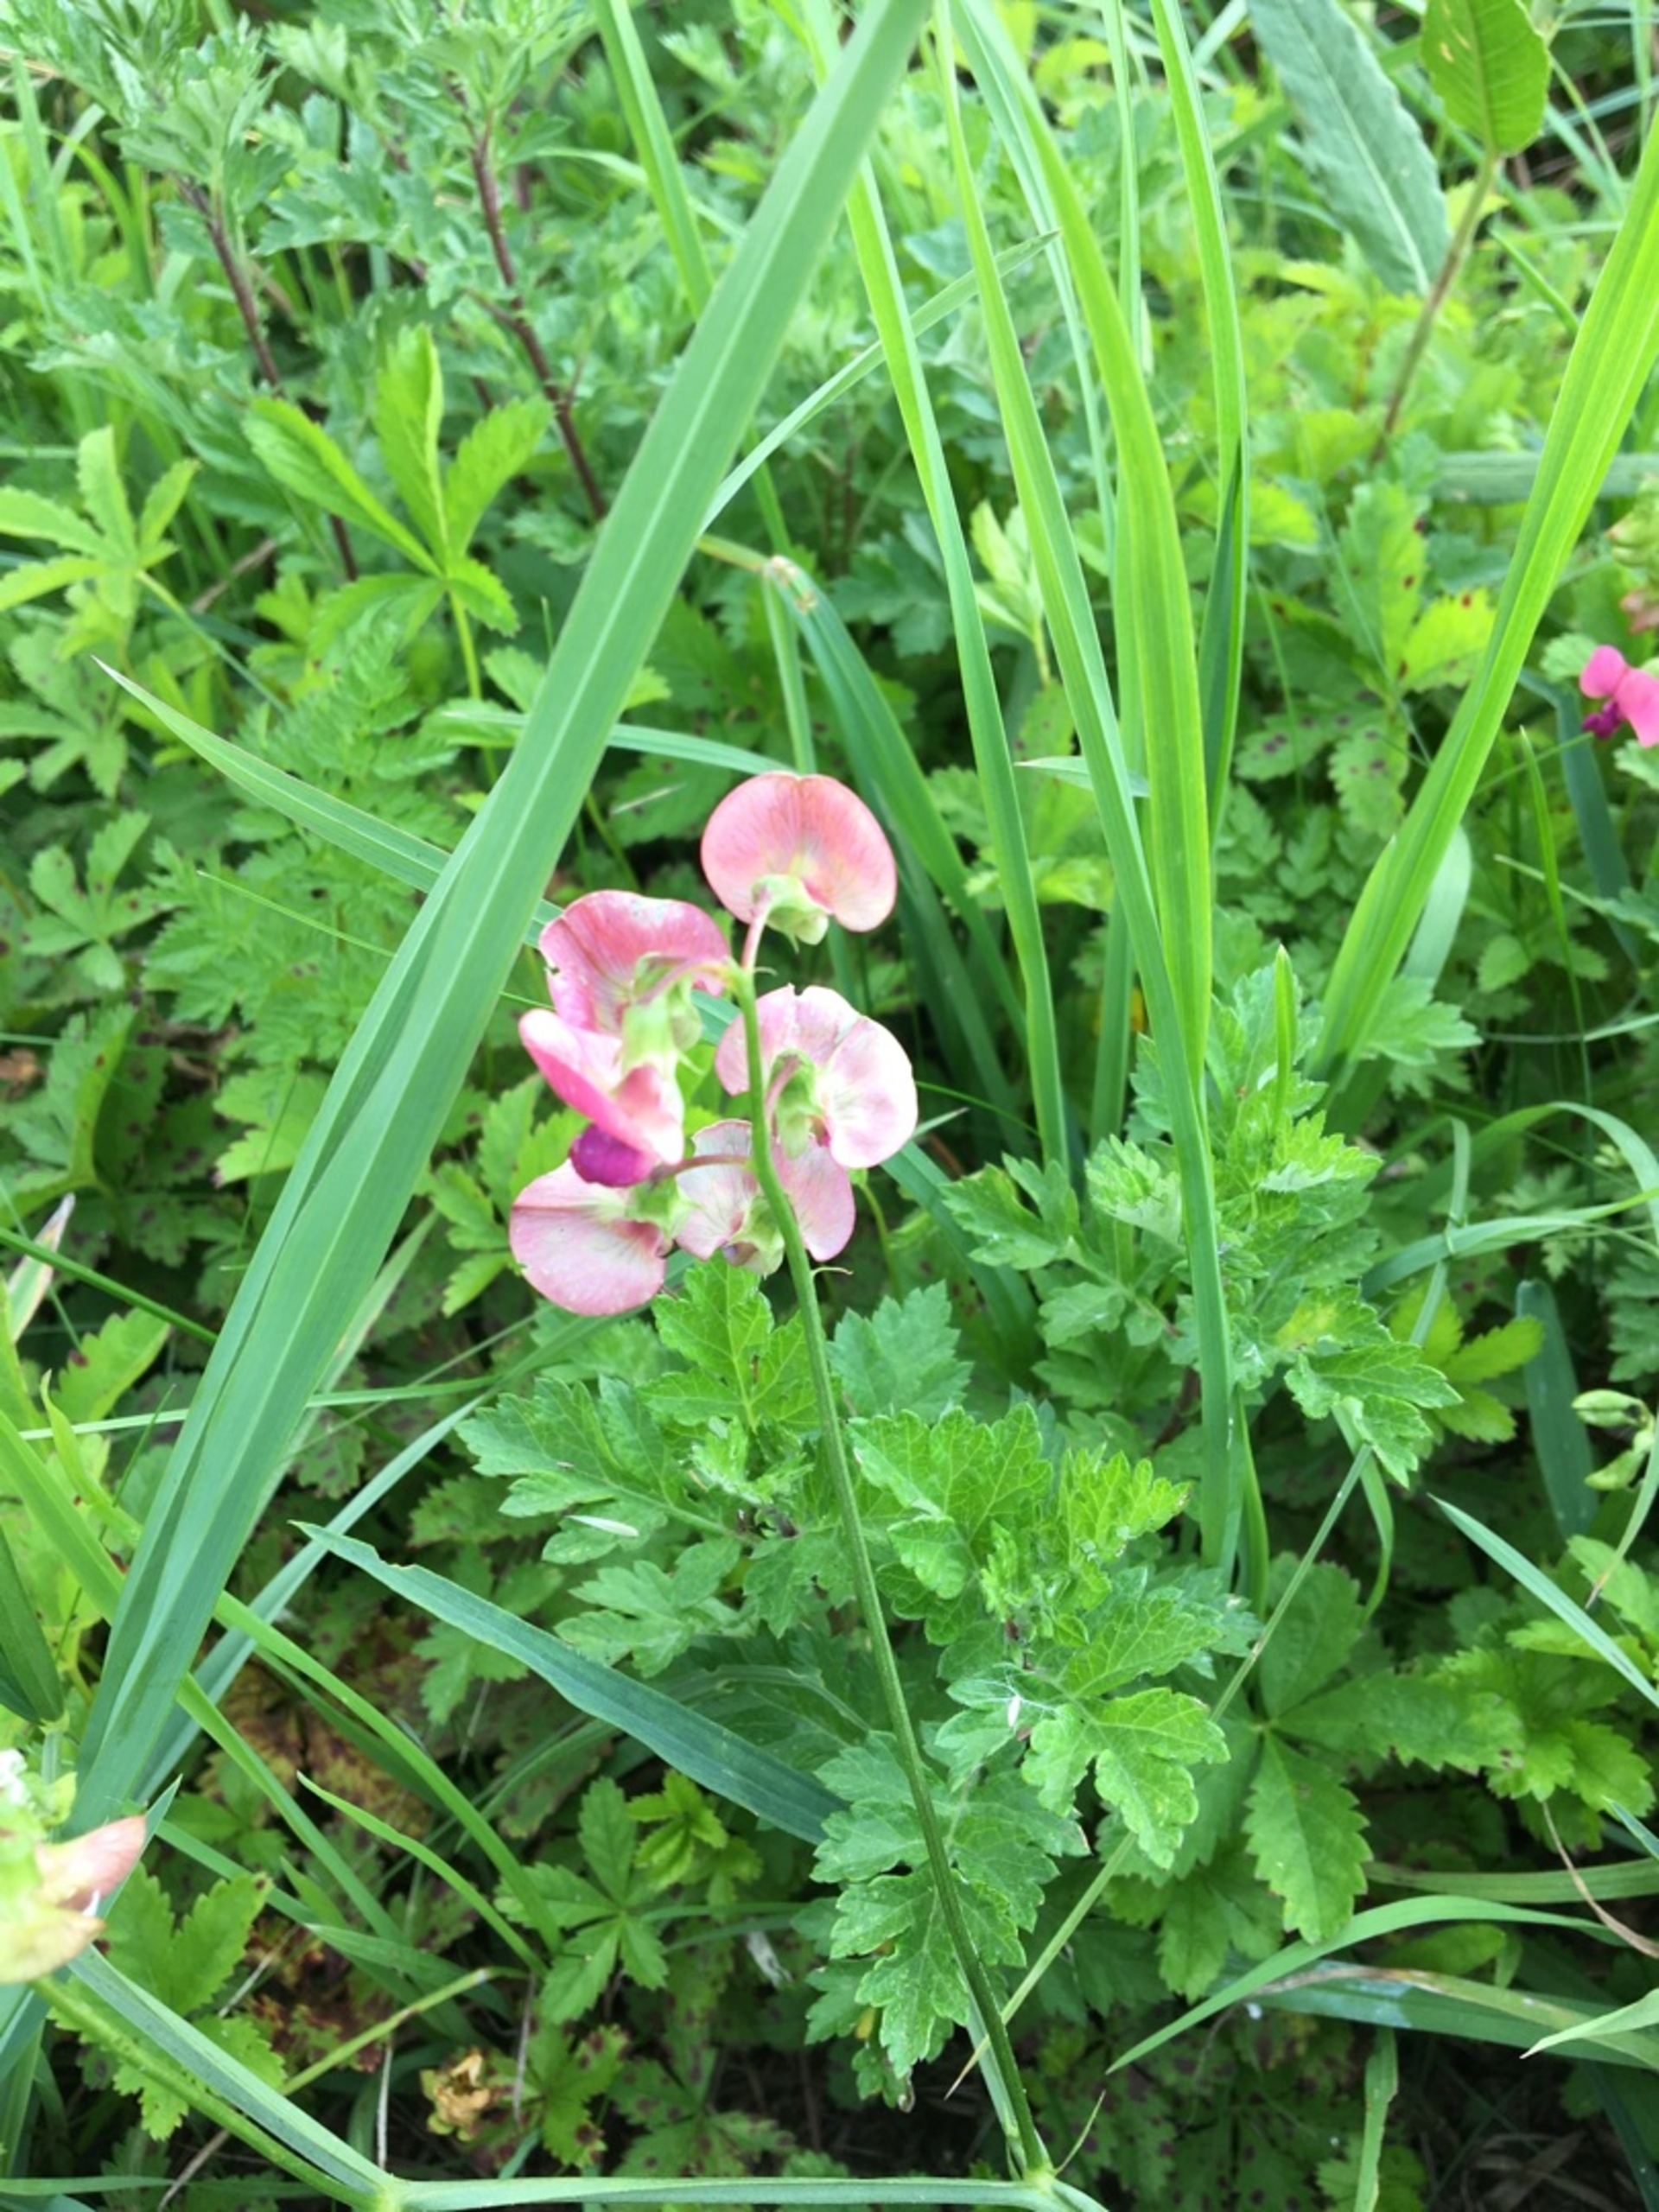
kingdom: Plantae
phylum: Tracheophyta
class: Magnoliopsida
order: Fabales
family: Fabaceae
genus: Lathyrus
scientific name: Lathyrus sylvestris
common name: Skov-fladbælg
